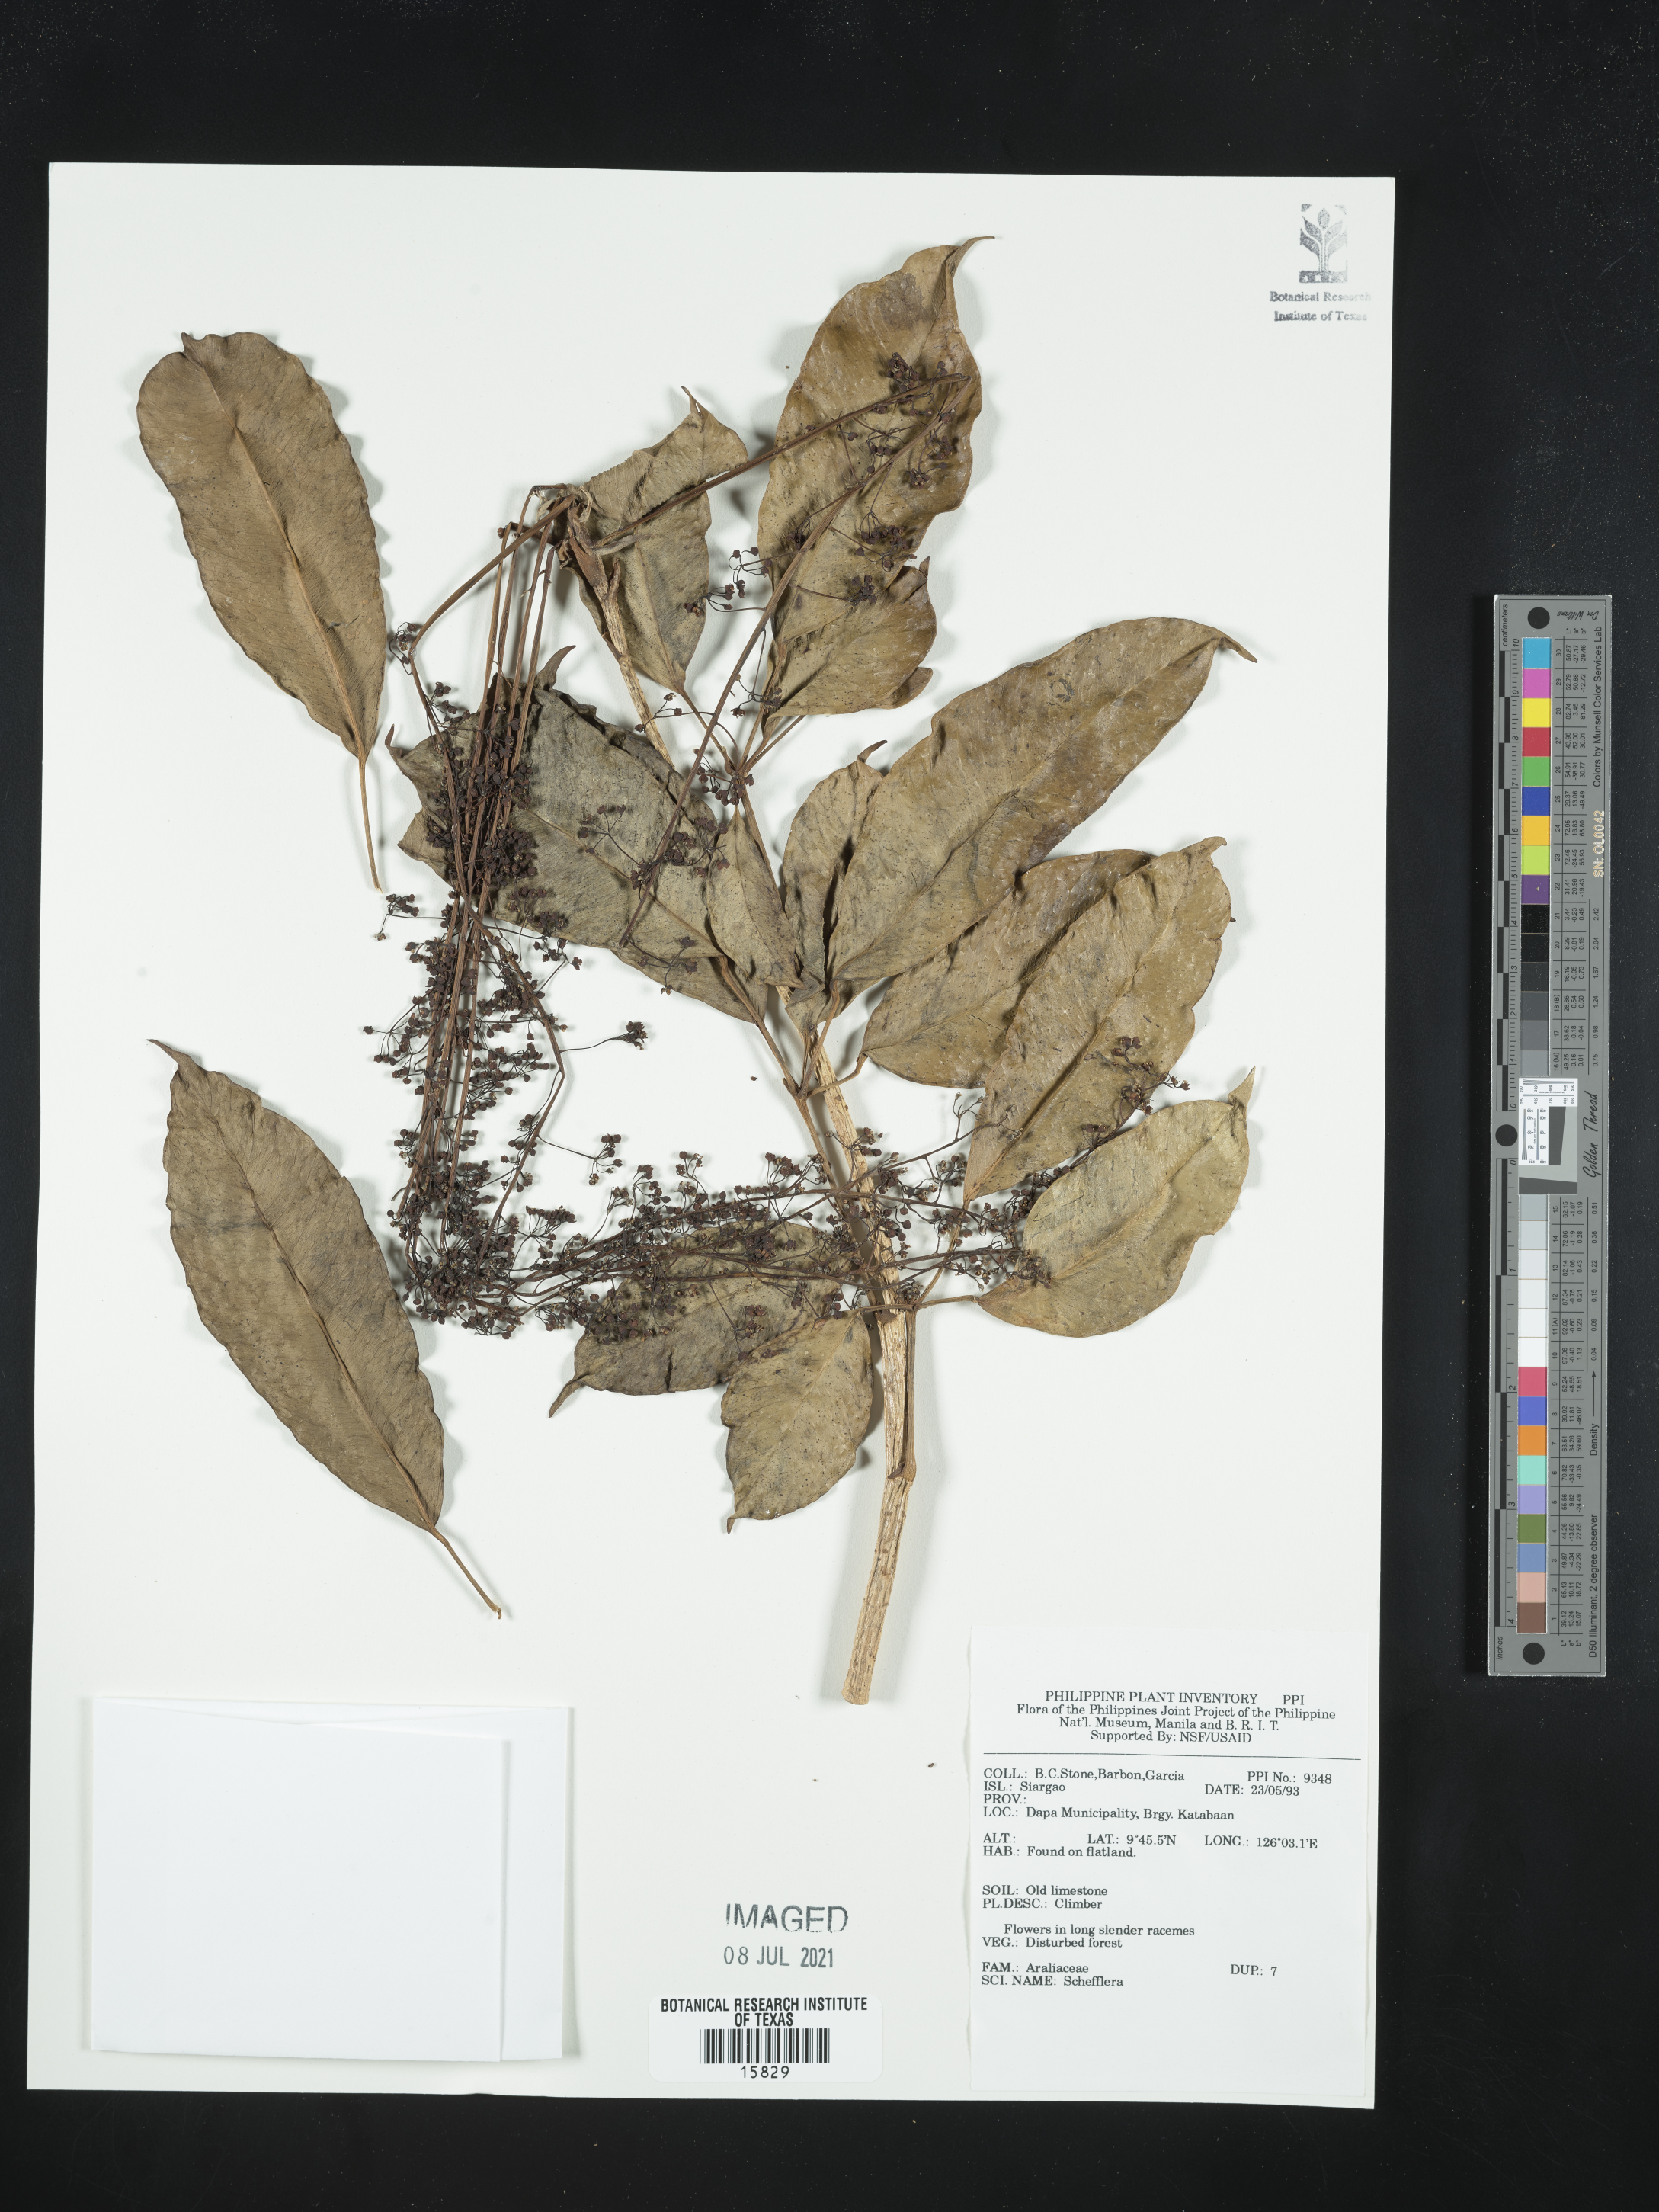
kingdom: Plantae
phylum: Tracheophyta
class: Magnoliopsida
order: Apiales
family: Araliaceae
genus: Schefflera
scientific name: Schefflera
